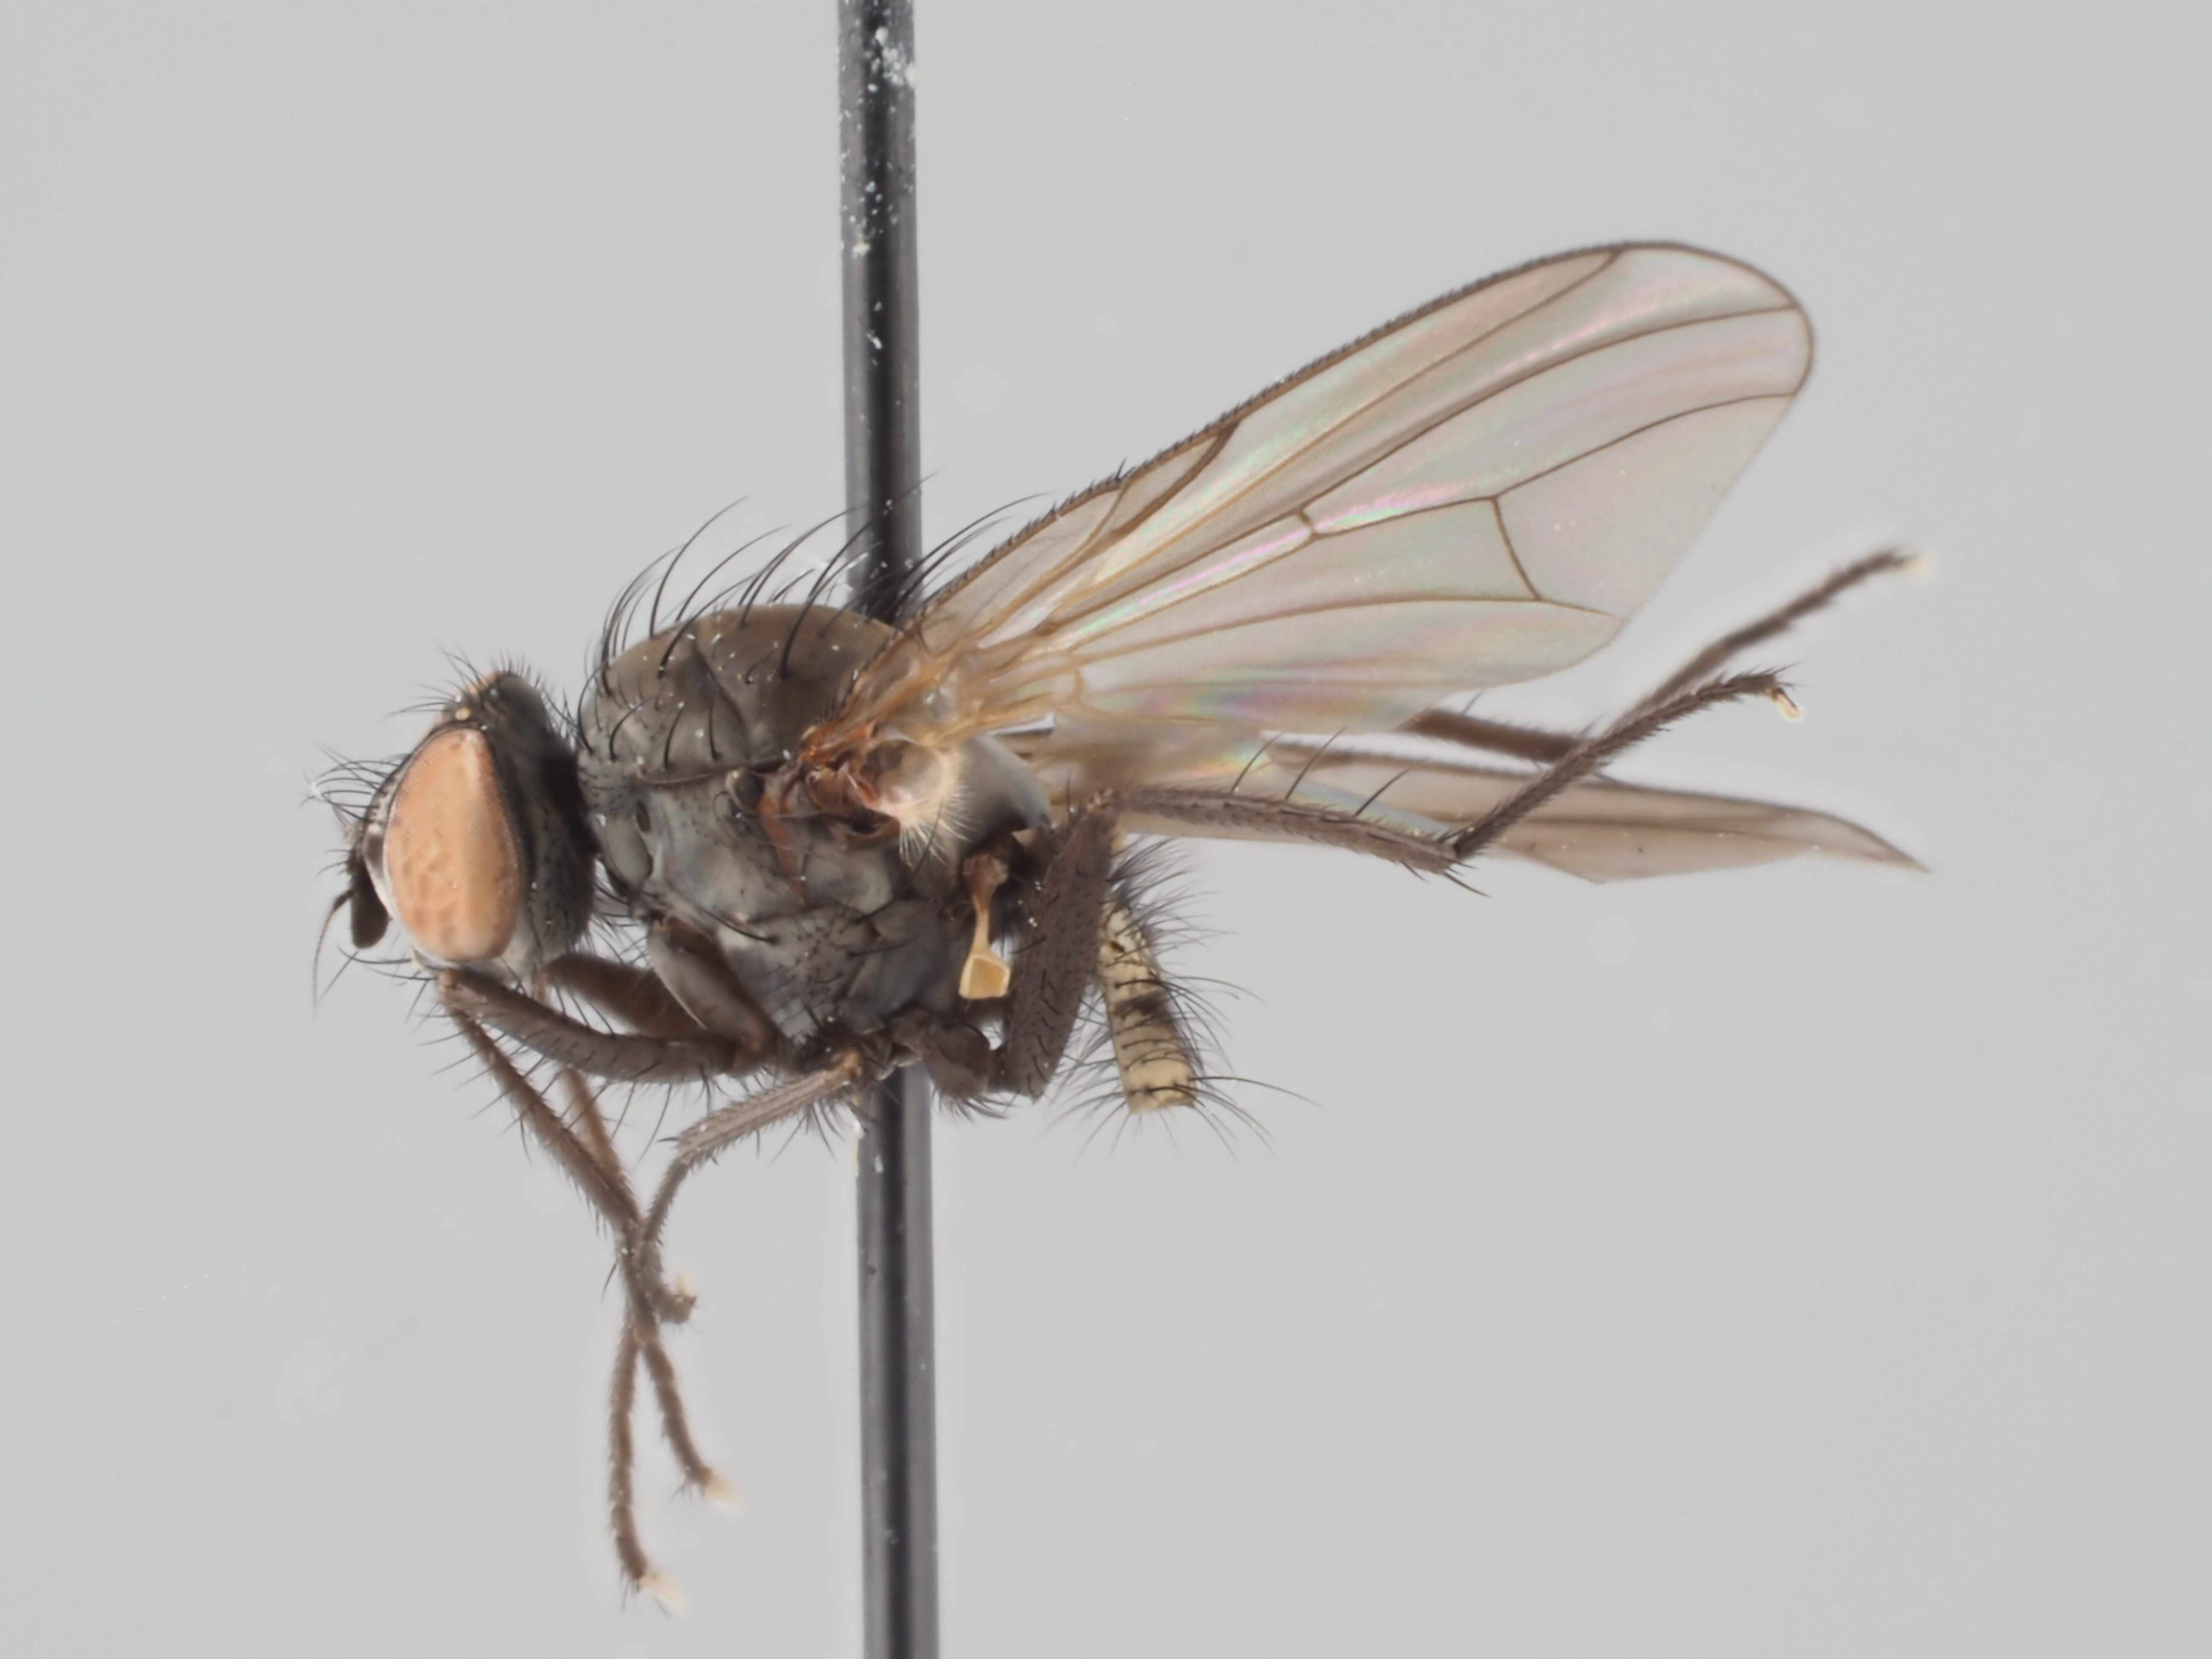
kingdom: Animalia
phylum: Arthropoda
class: Insecta
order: Diptera
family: Anthomyiidae
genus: Delia
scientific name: Delia tenuiventris
